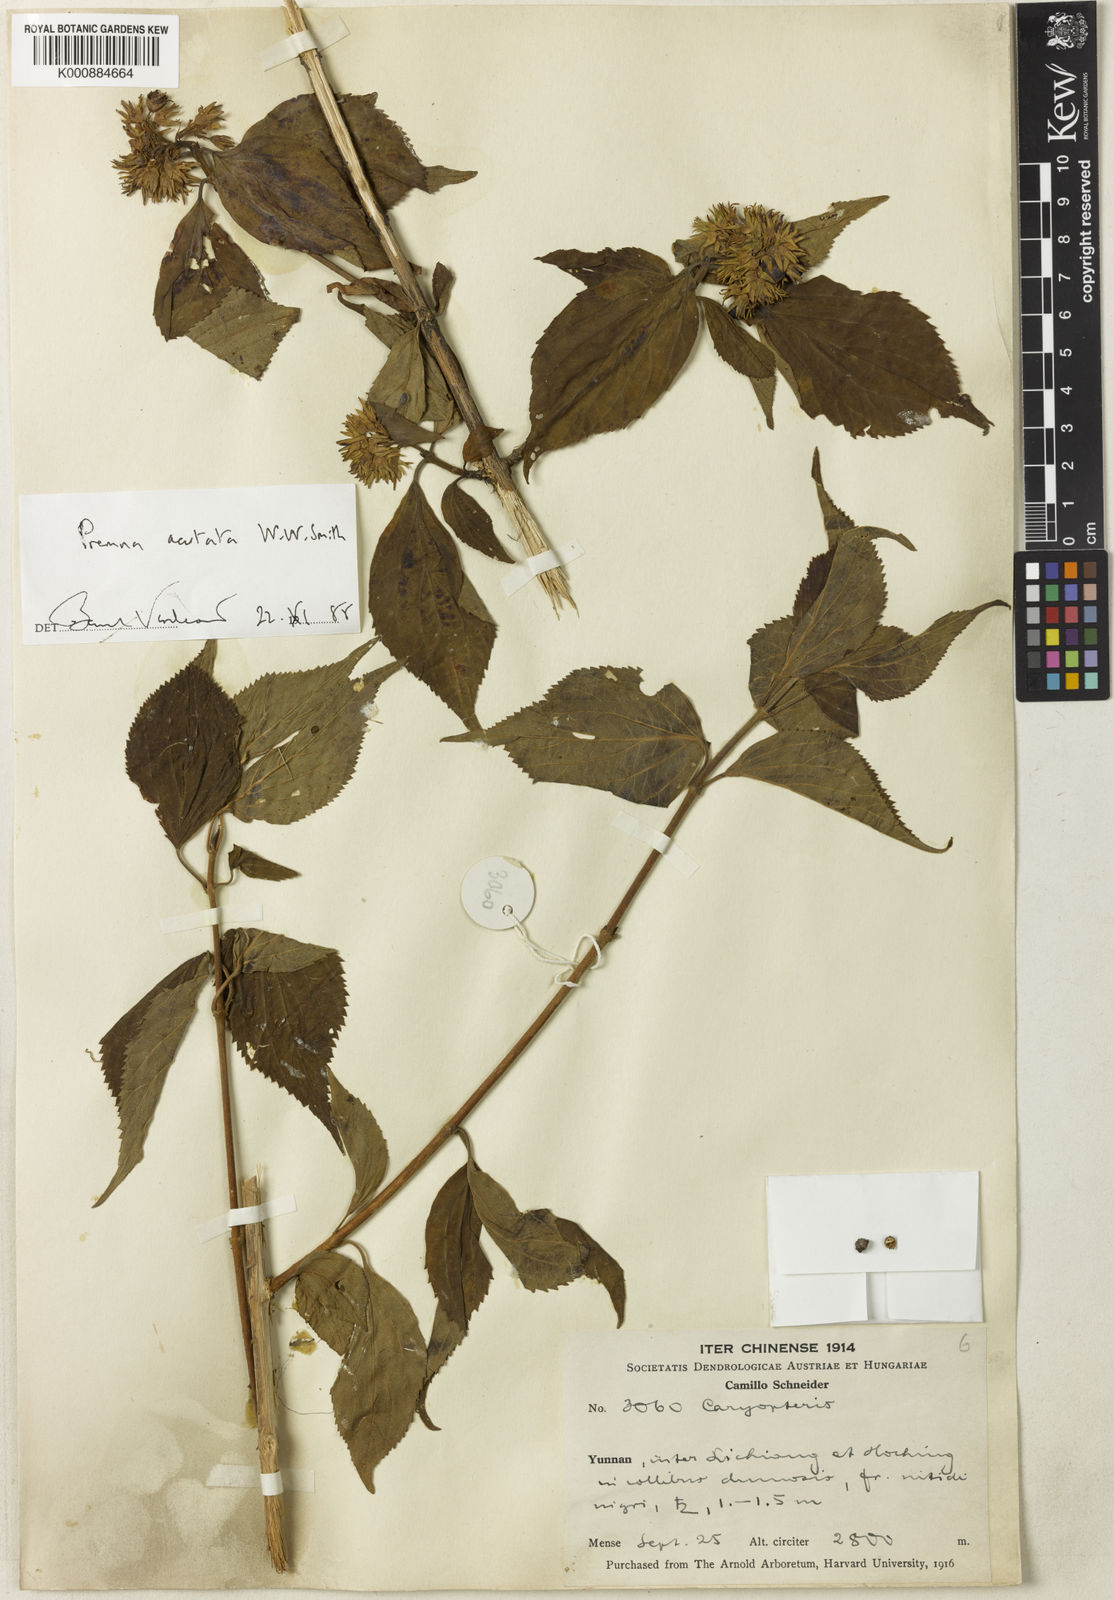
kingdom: Plantae
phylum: Tracheophyta
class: Magnoliopsida
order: Lamiales
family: Lamiaceae
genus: Premna
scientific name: Premna acutata
